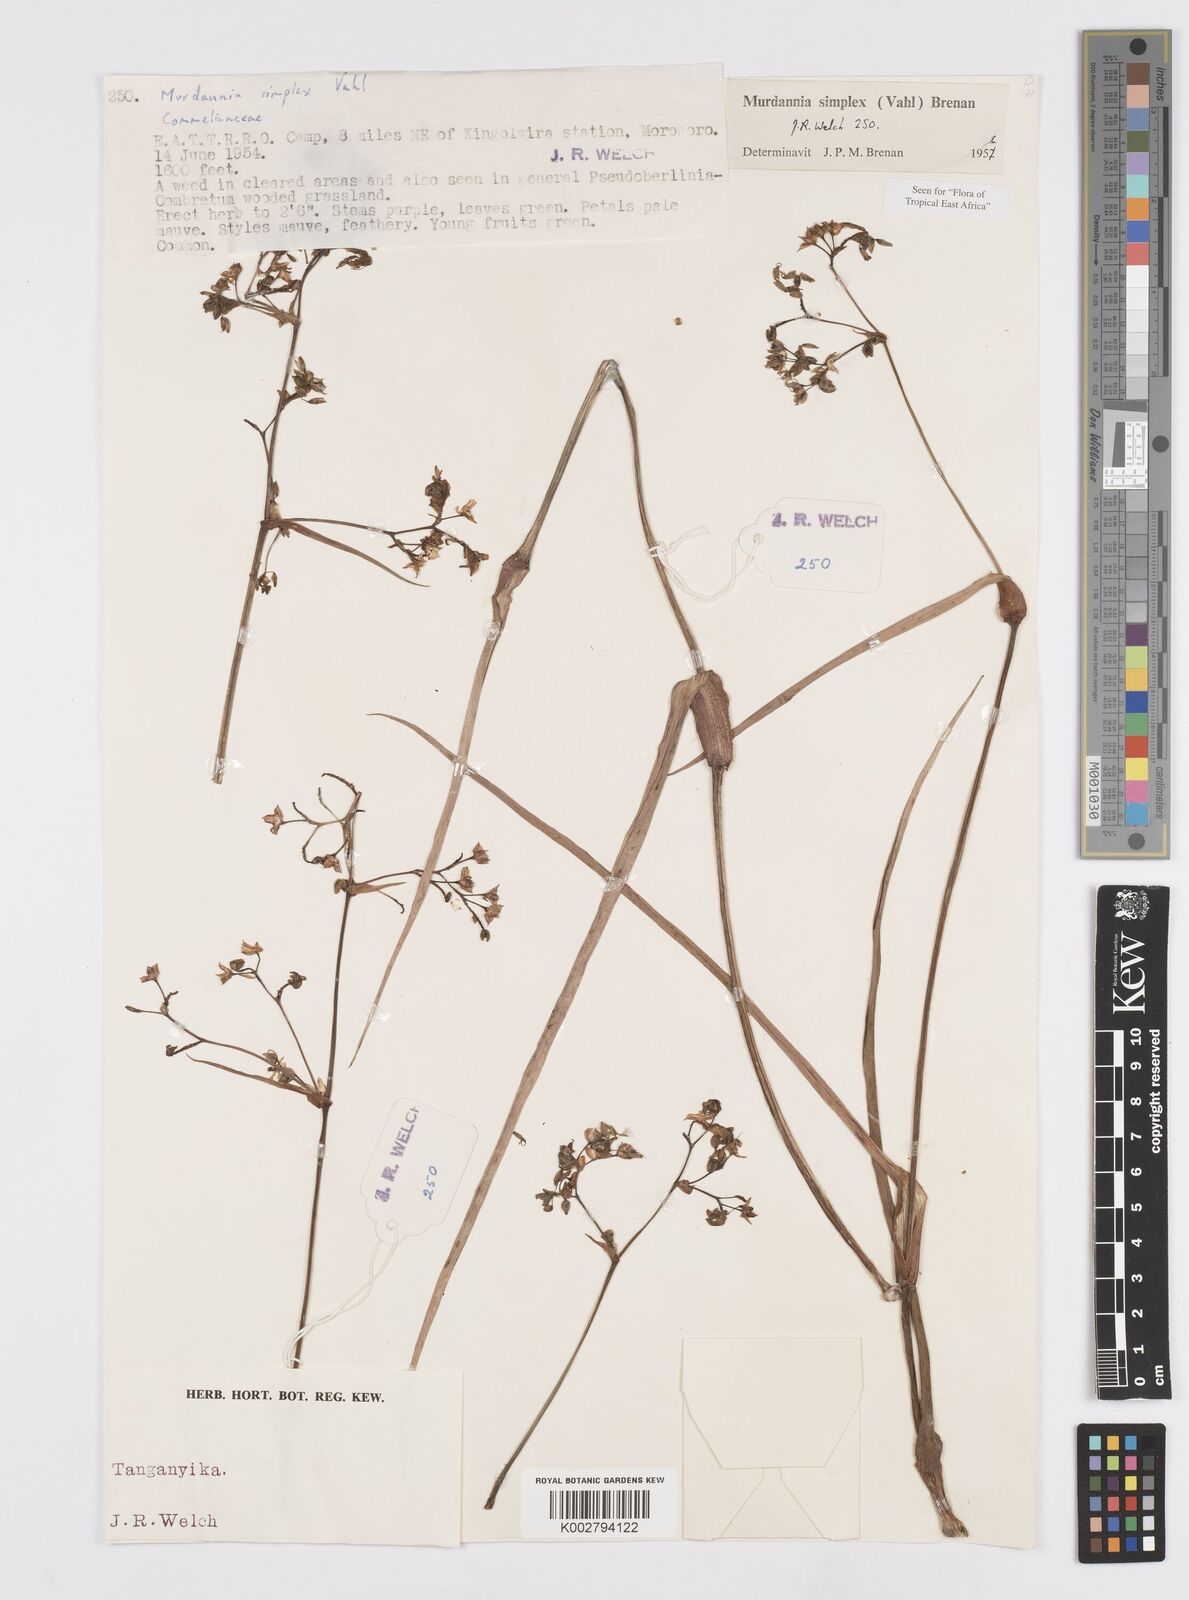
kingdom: Plantae
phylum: Tracheophyta
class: Liliopsida
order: Commelinales
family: Commelinaceae
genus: Murdannia
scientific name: Murdannia simplex
